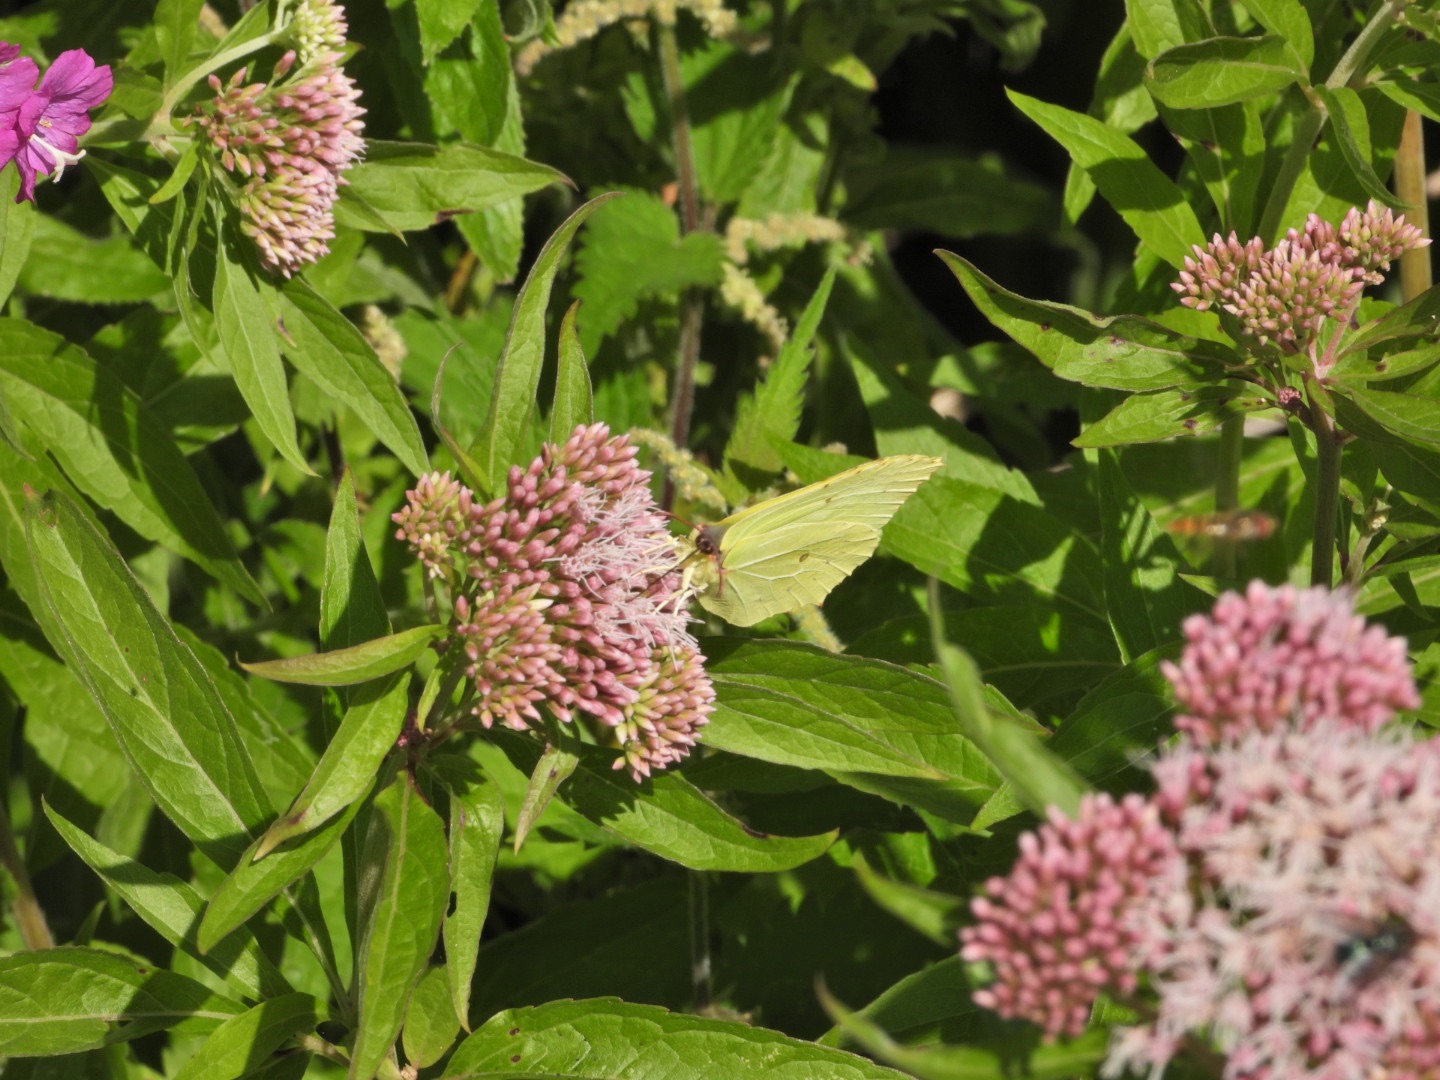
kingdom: Animalia
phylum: Arthropoda
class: Insecta
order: Lepidoptera
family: Pieridae
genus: Gonepteryx
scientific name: Gonepteryx rhamni
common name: Citronsommerfugl
